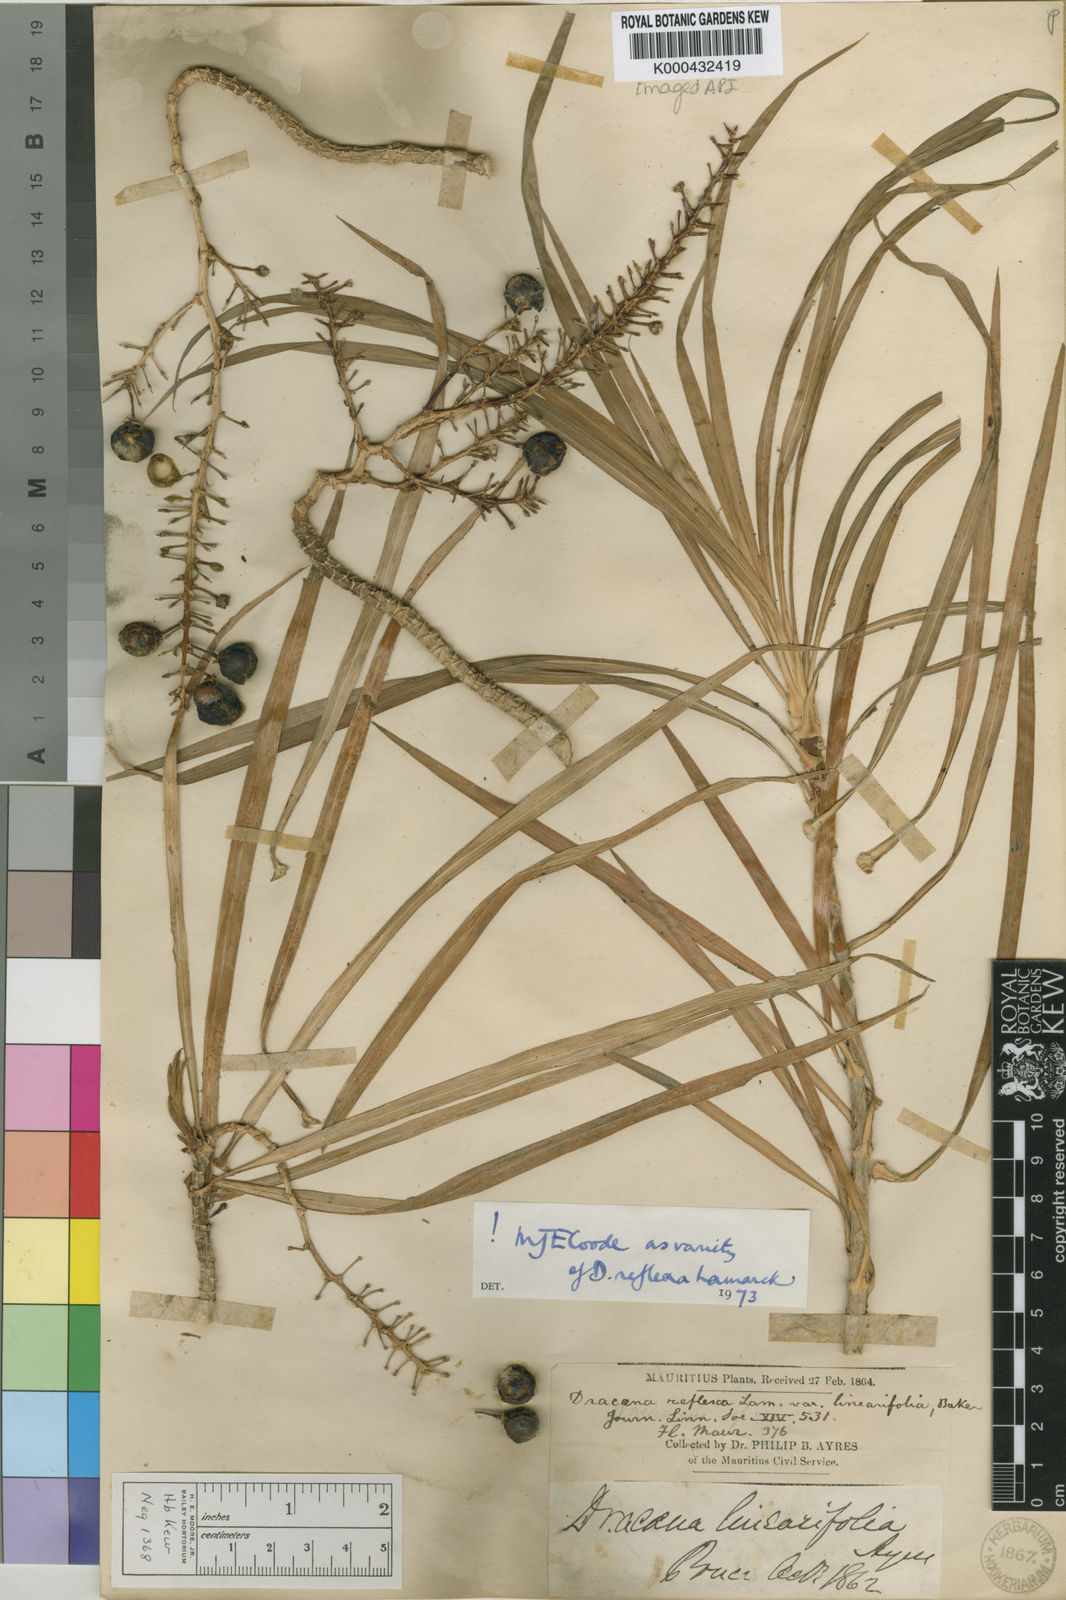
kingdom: Plantae
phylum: Tracheophyta
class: Liliopsida
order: Asparagales
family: Asparagaceae
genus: Dracaena
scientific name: Dracaena reflexa
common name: Song-of-india
